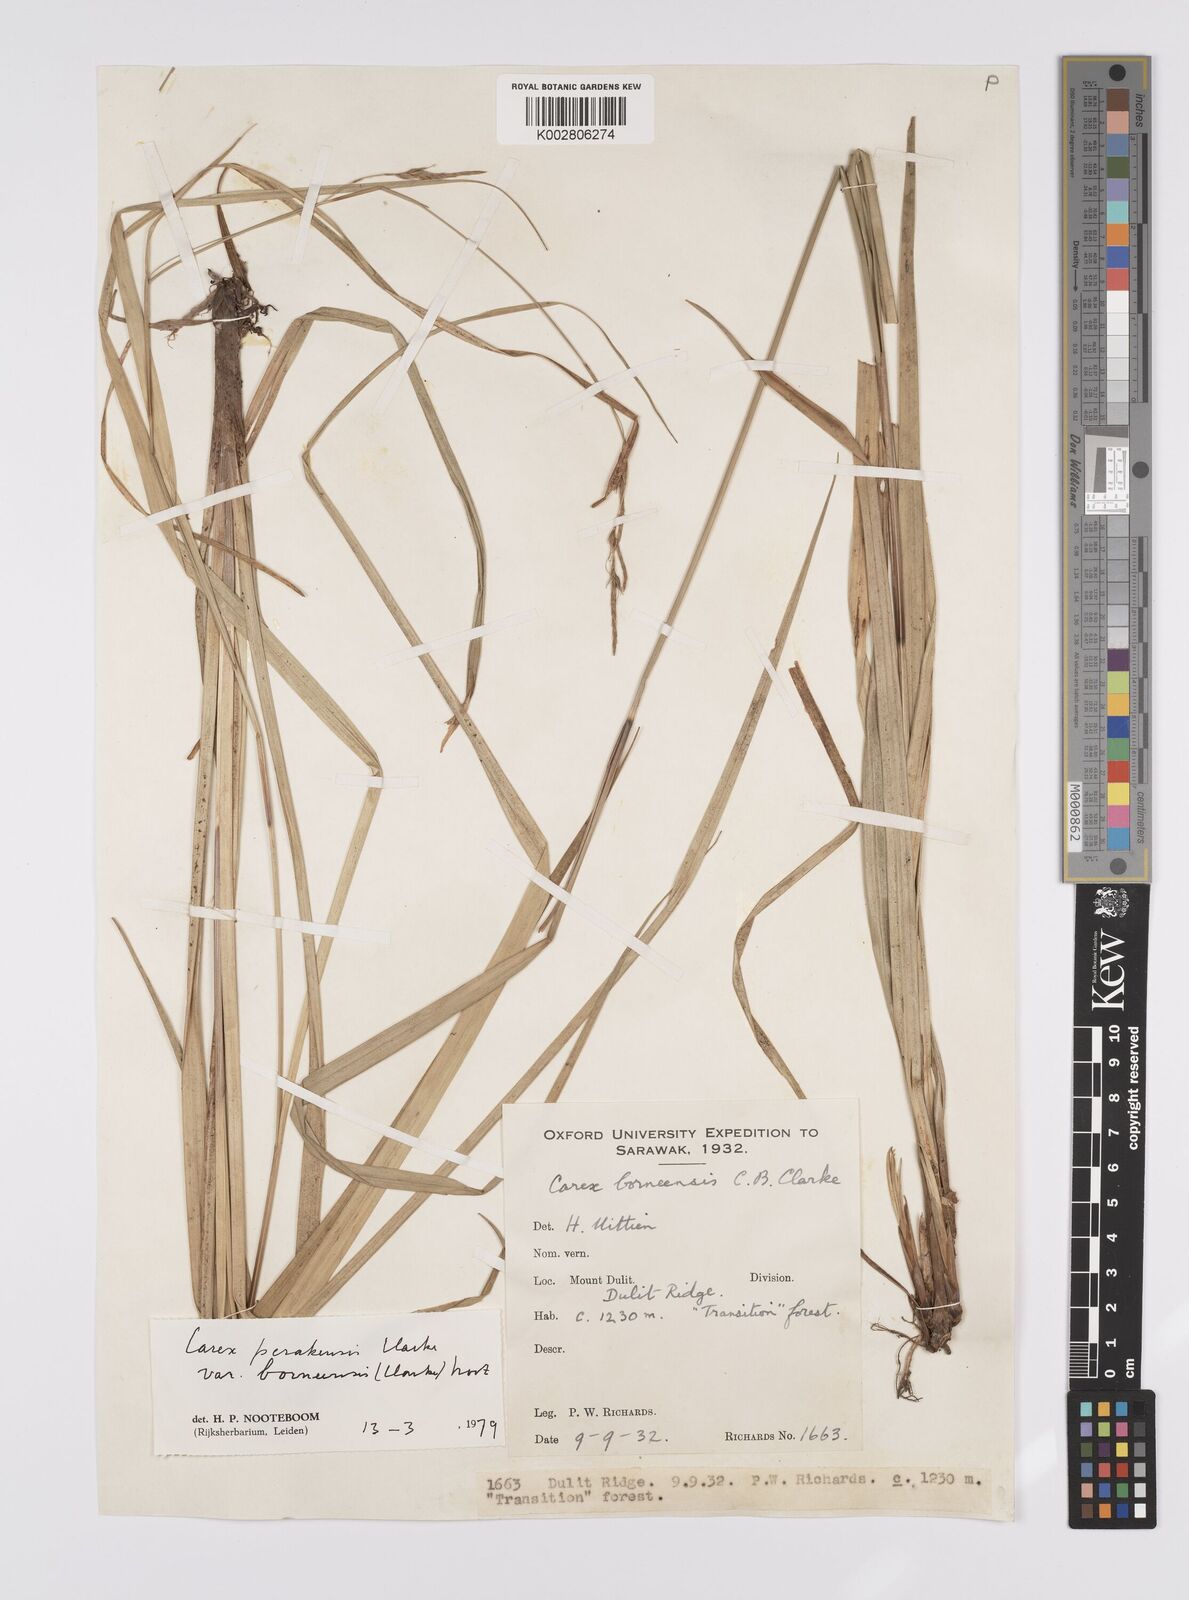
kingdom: Plantae
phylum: Tracheophyta
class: Liliopsida
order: Poales
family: Cyperaceae
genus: Carex
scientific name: Carex perakensis
